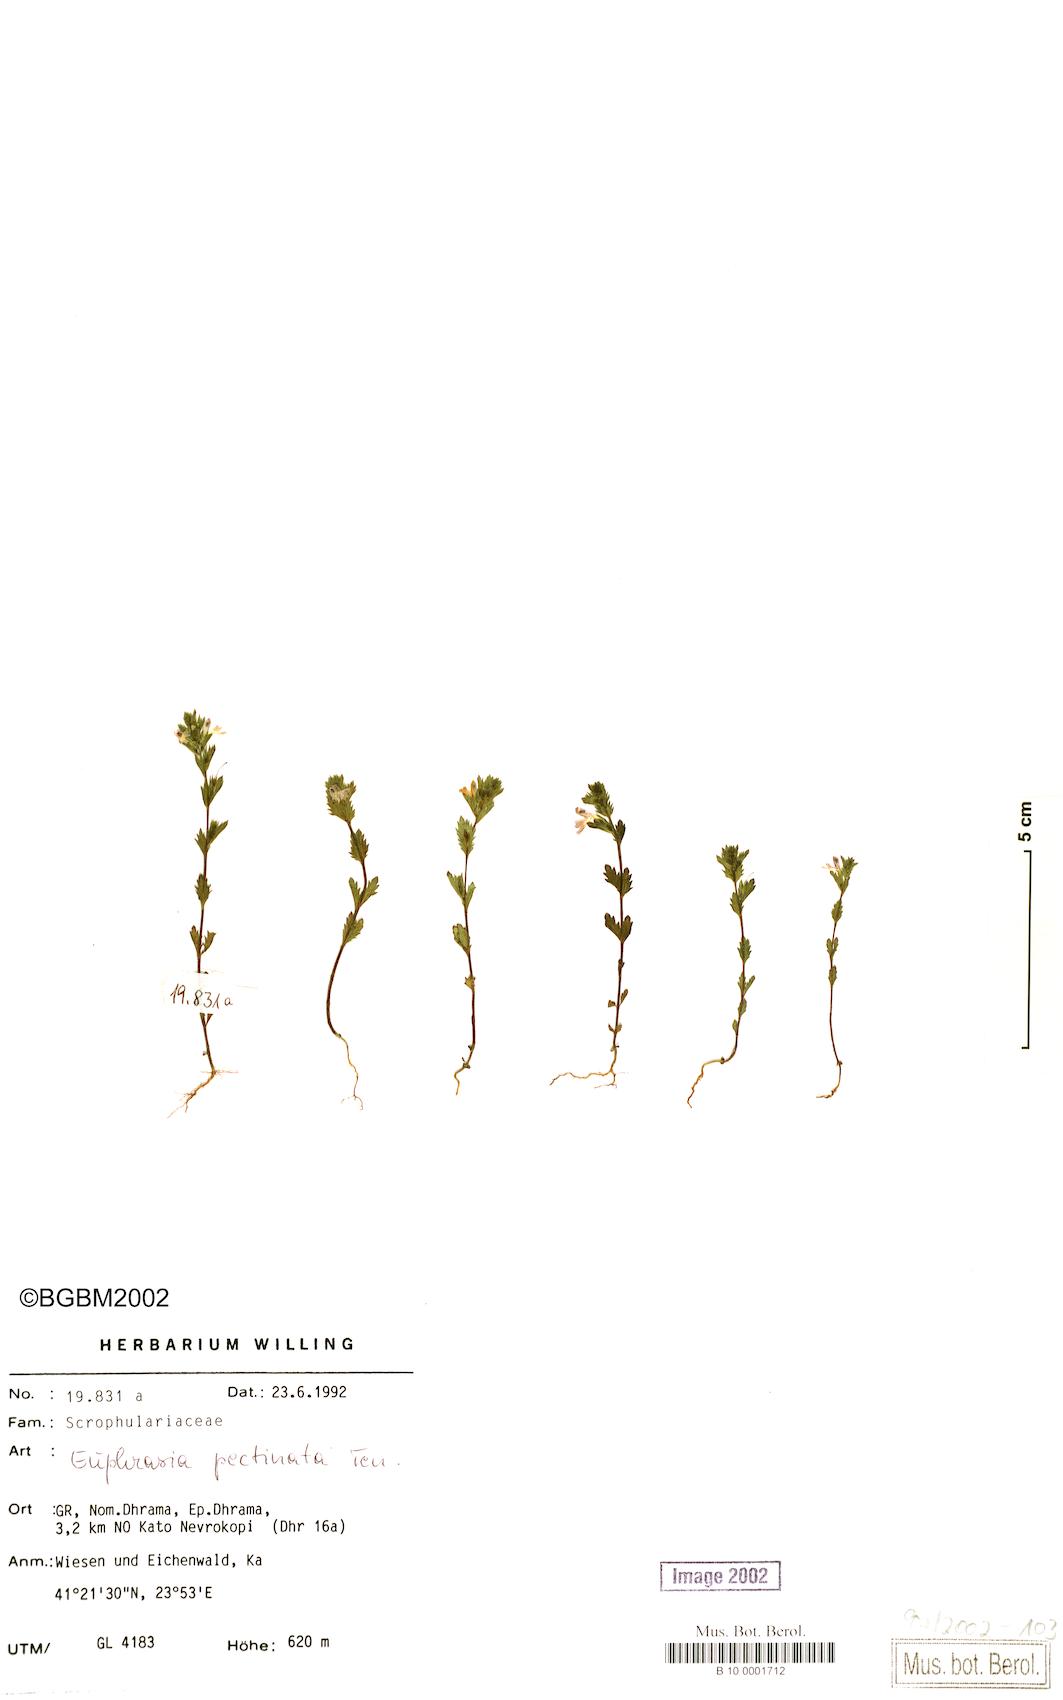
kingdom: Plantae
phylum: Tracheophyta
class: Magnoliopsida
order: Lamiales
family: Orobanchaceae
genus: Euphrasia
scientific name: Euphrasia pectinata
